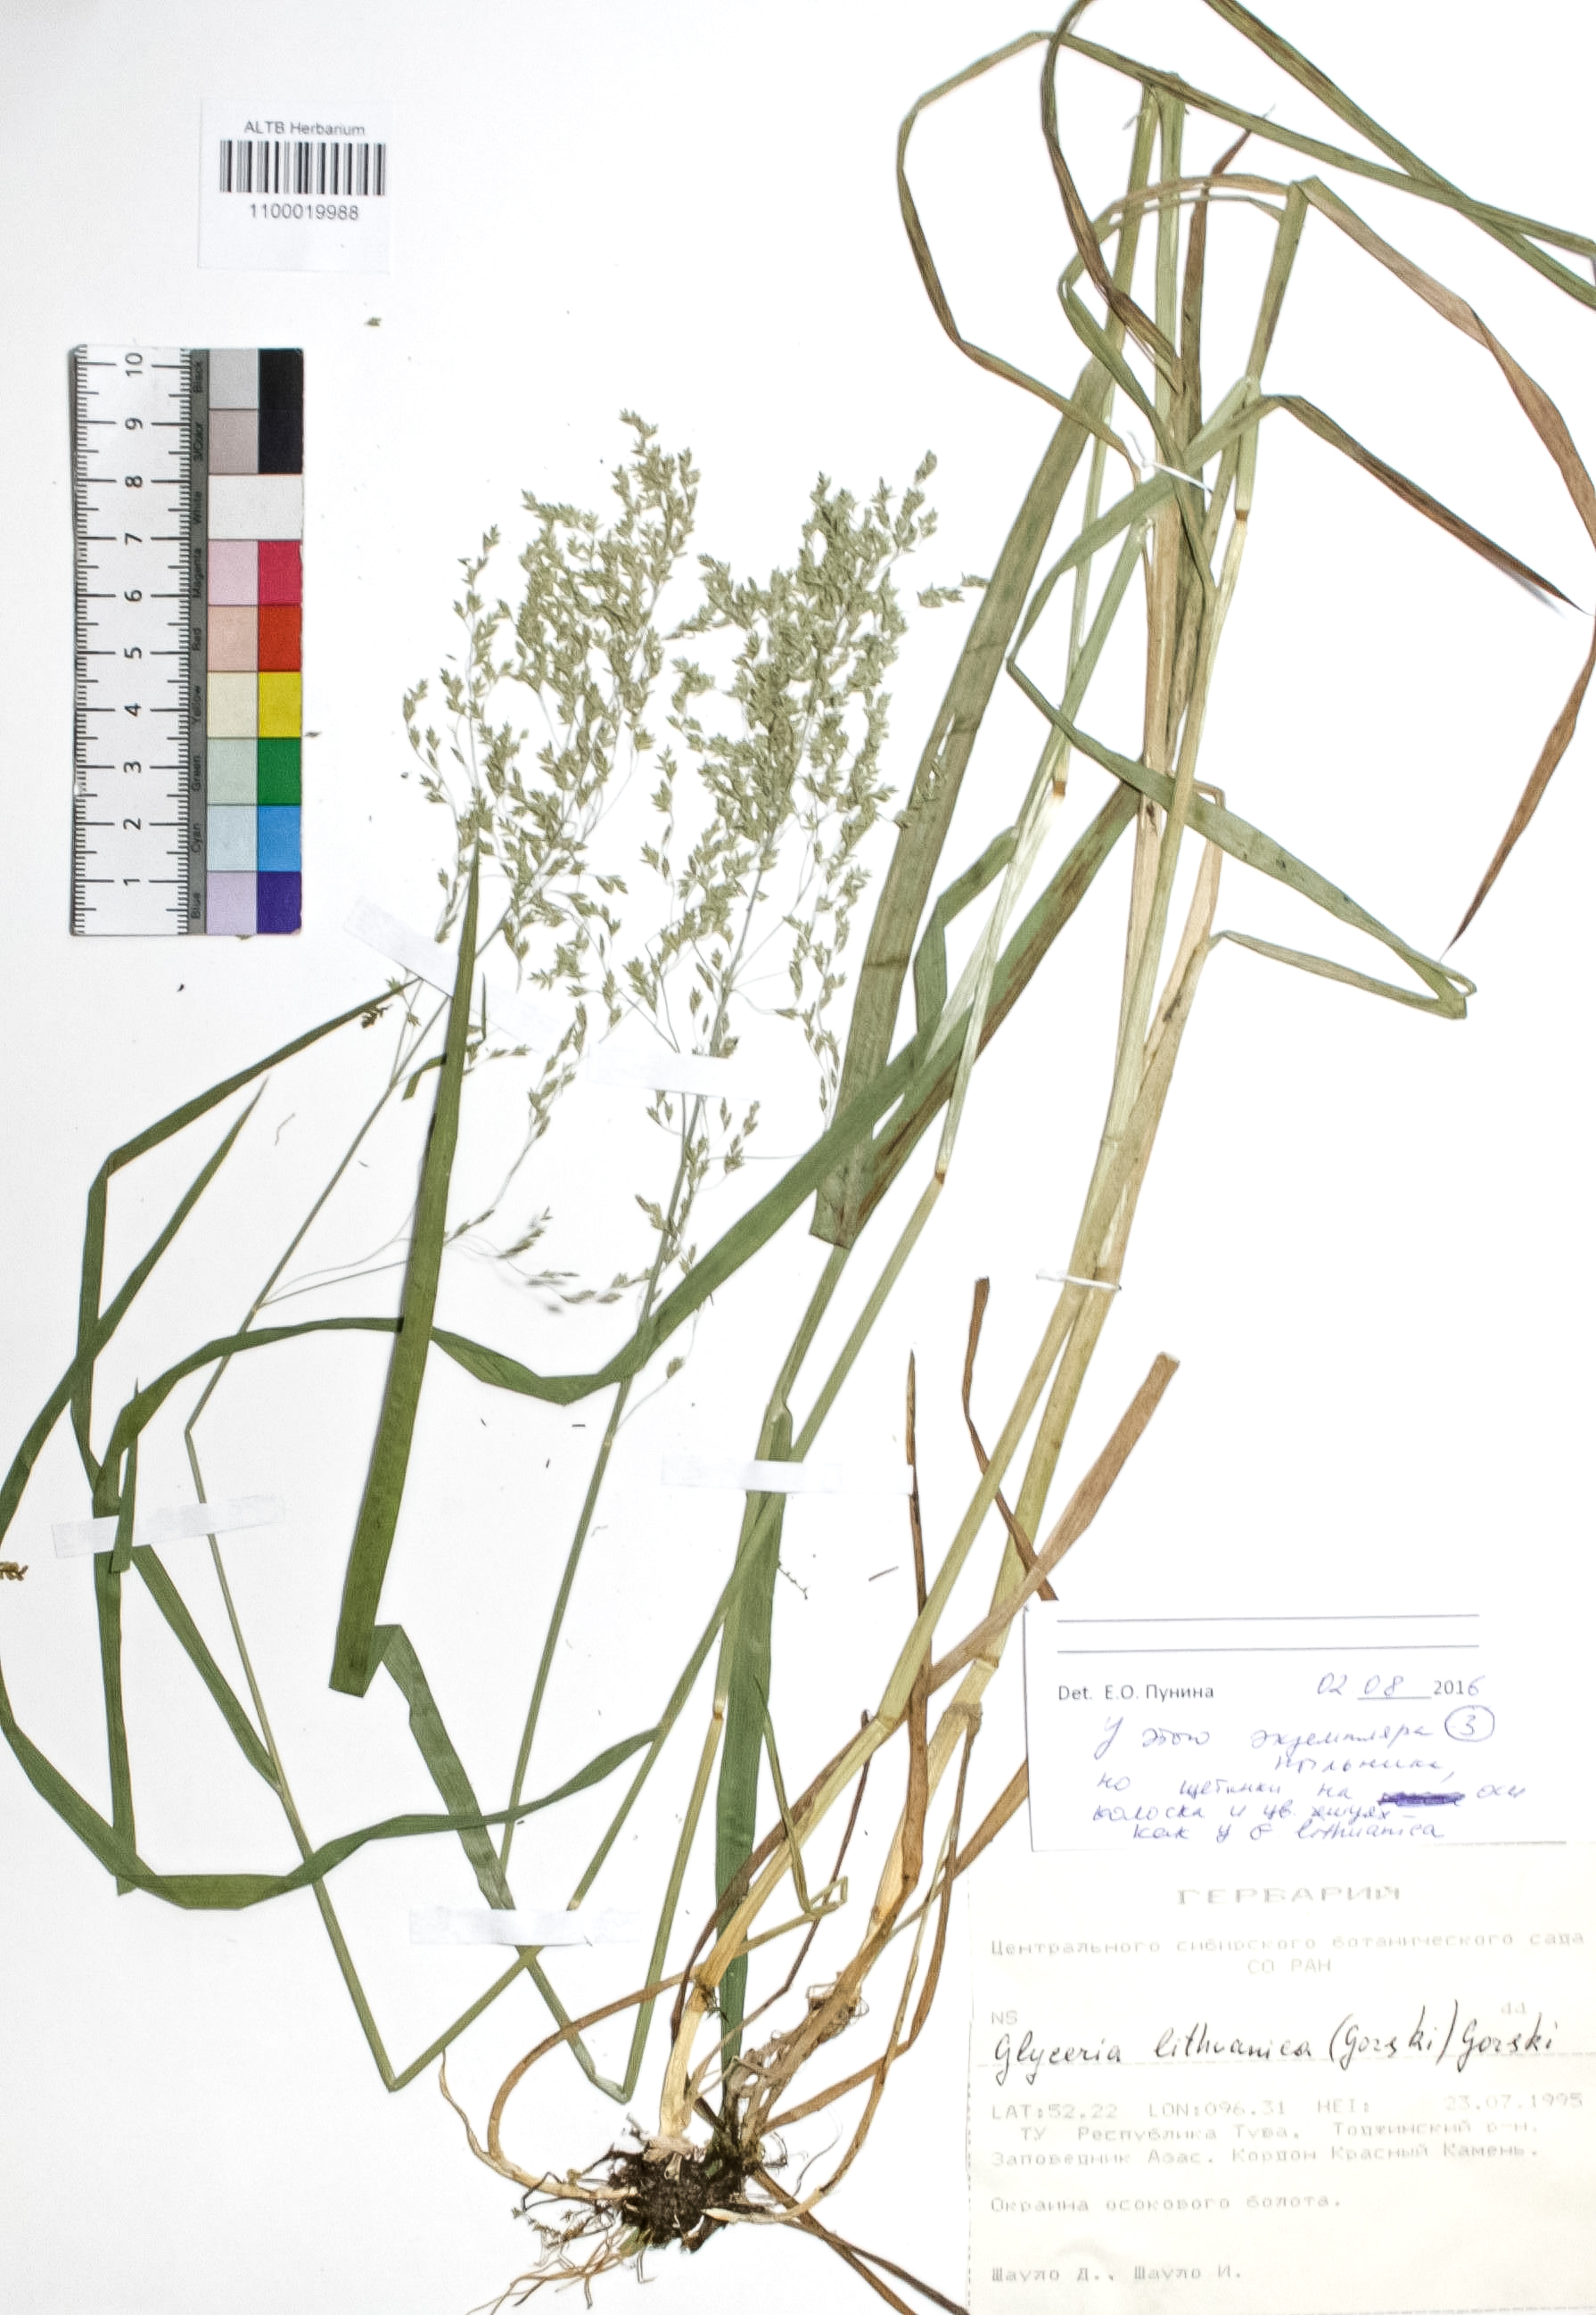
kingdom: Plantae
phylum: Tracheophyta
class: Liliopsida
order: Poales
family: Poaceae
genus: Glyceria
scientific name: Glyceria lithuanica
